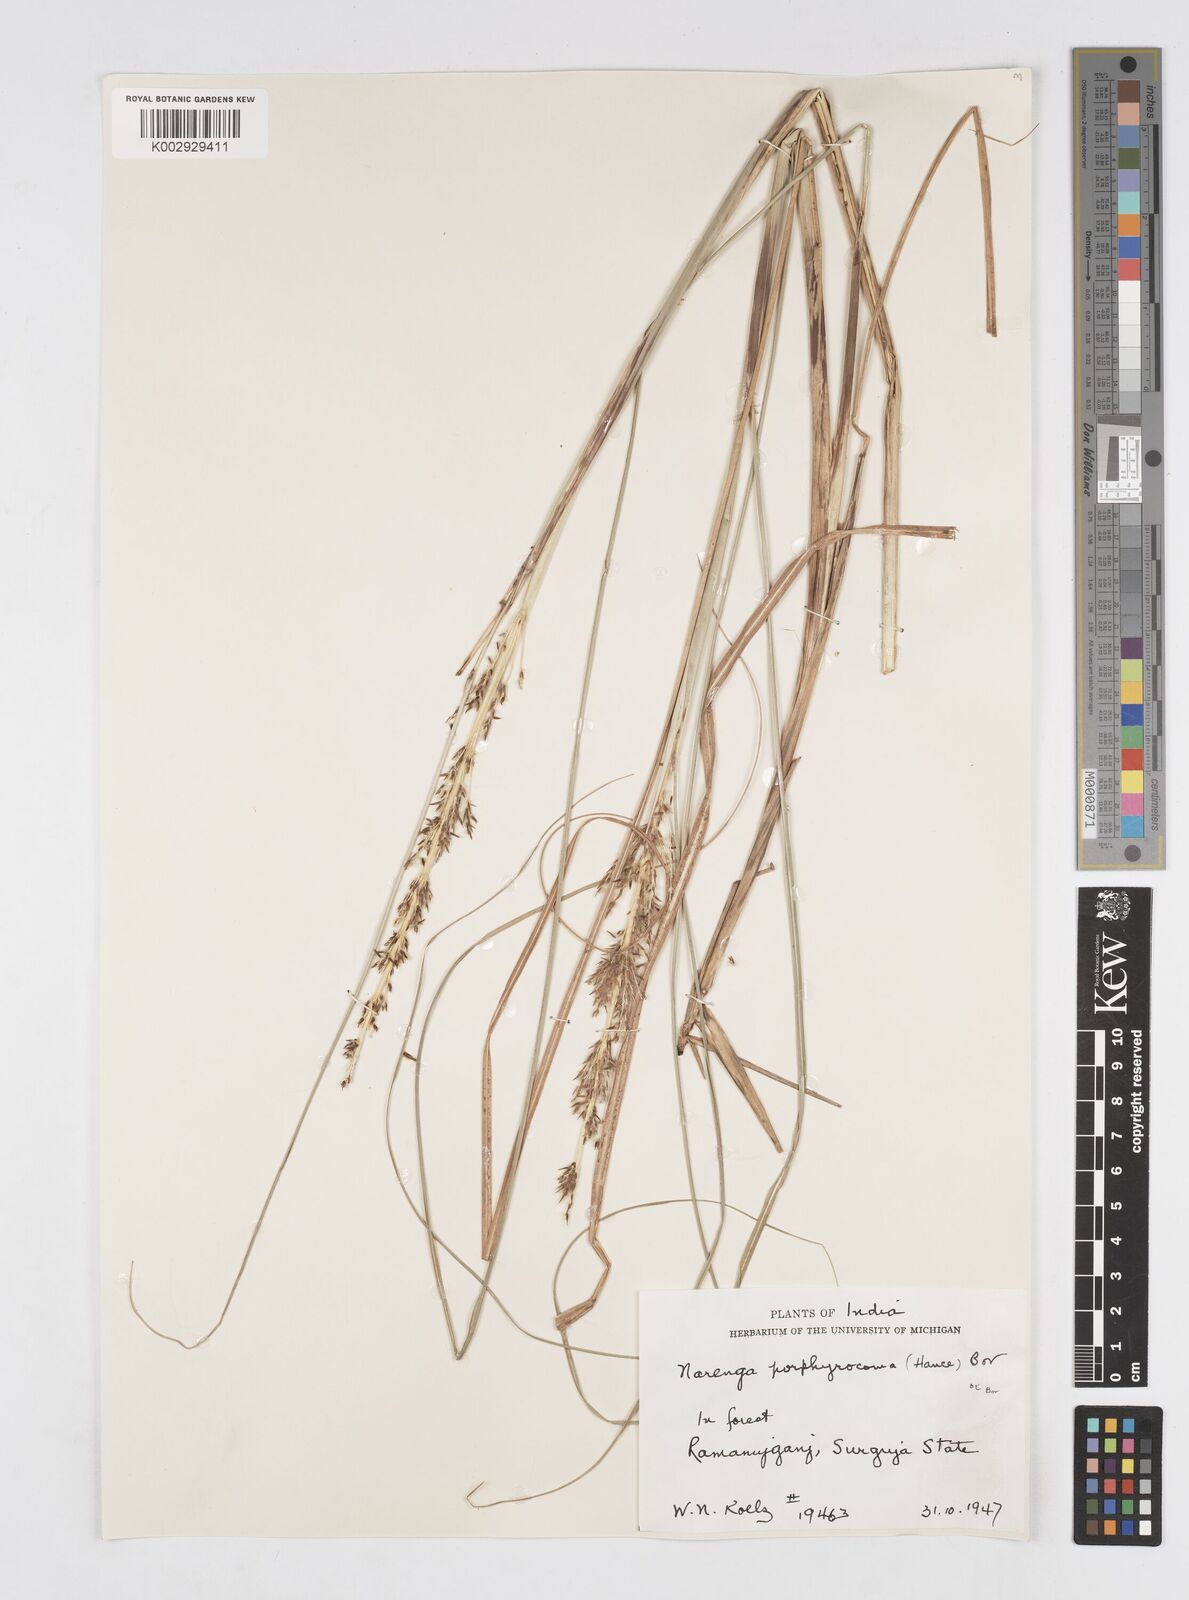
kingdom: Plantae
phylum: Tracheophyta
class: Liliopsida
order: Poales
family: Poaceae
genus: Narenga
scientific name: Narenga porphyrocoma
